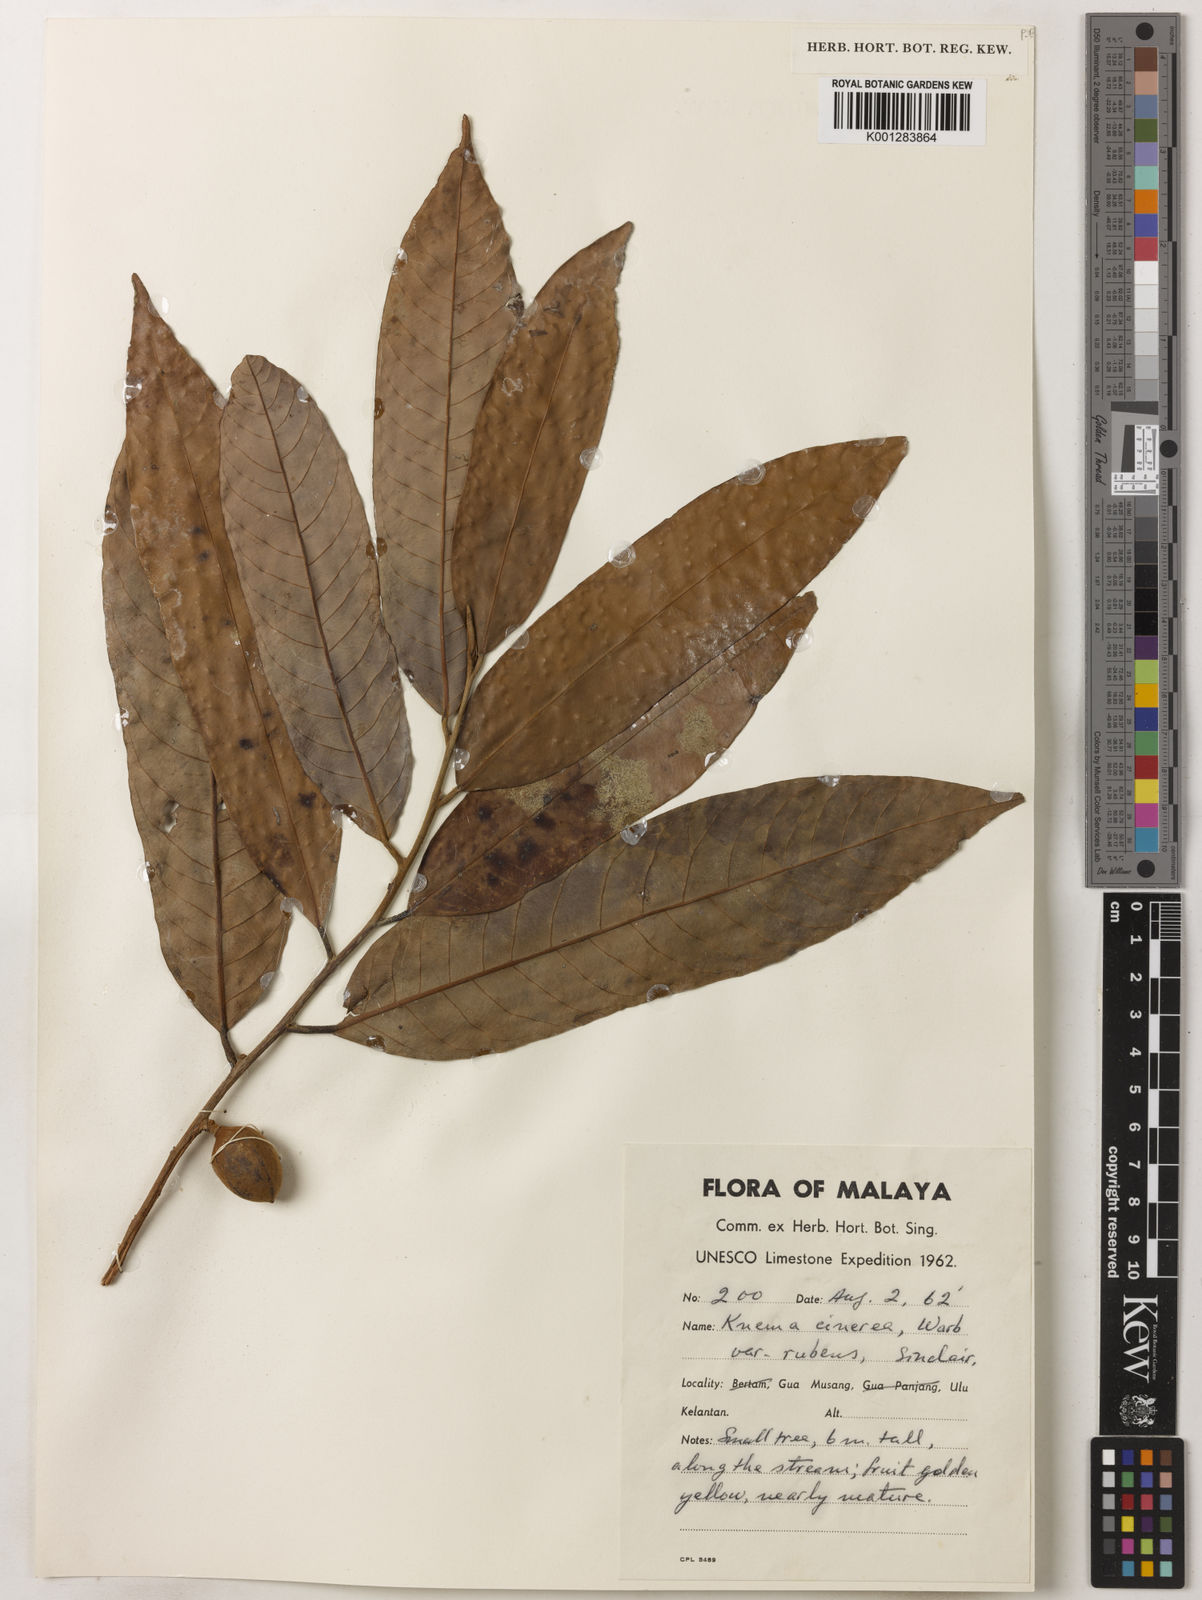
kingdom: Plantae
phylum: Tracheophyta
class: Magnoliopsida
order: Magnoliales
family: Myristicaceae
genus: Knema
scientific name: Knema
